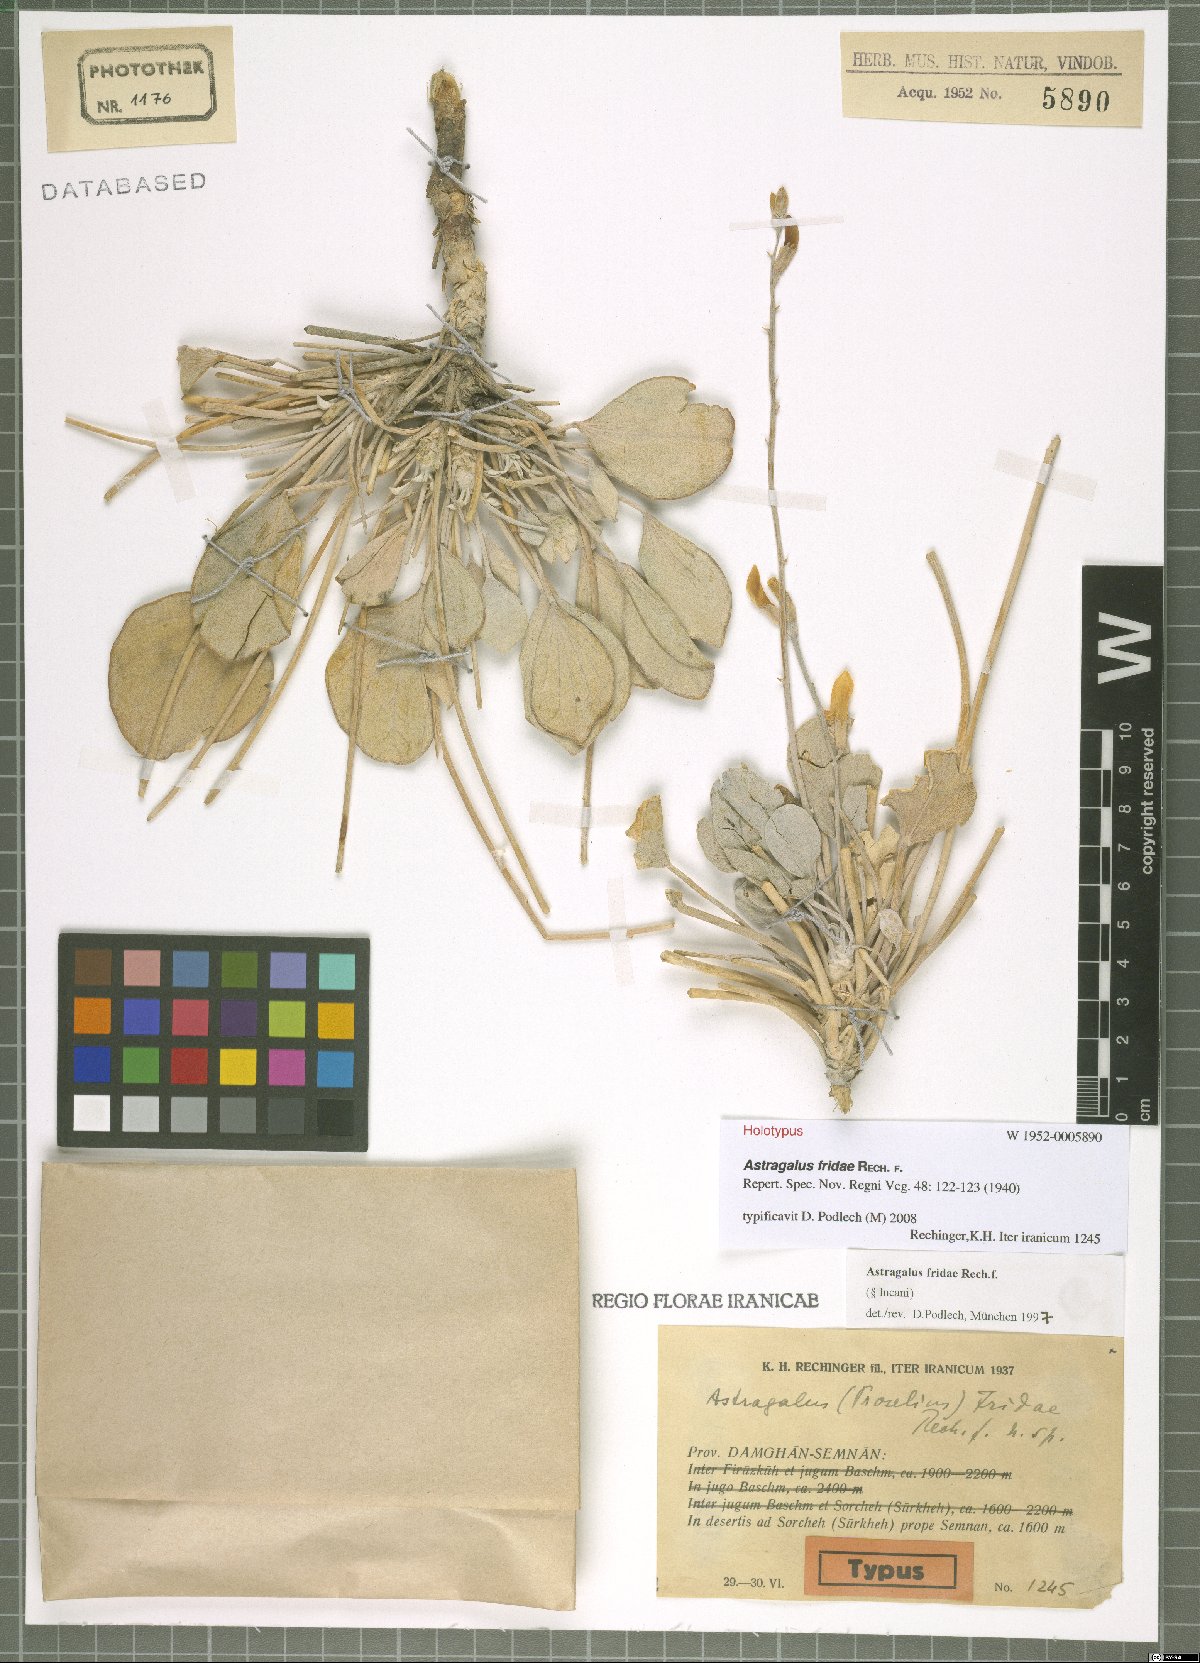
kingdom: Plantae
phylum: Tracheophyta
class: Magnoliopsida
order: Fabales
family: Fabaceae
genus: Astragalus
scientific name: Astragalus fridae
